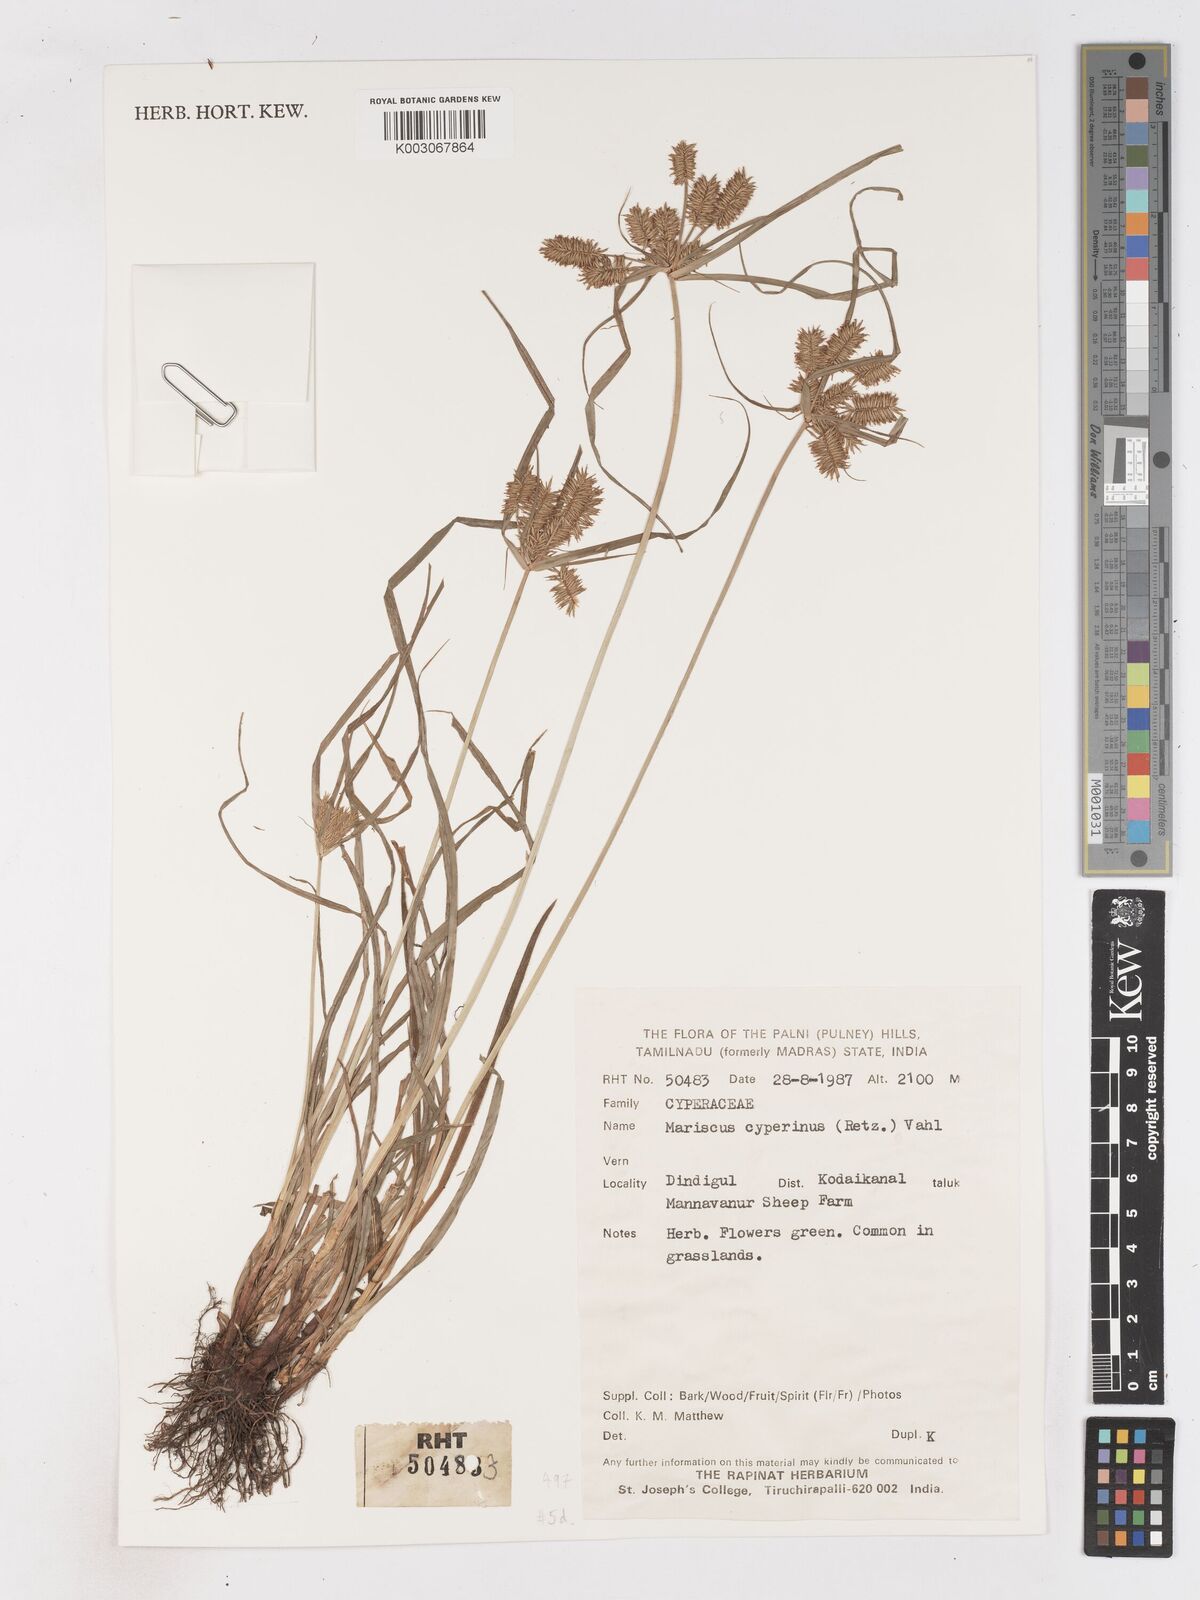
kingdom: Plantae
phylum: Tracheophyta
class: Liliopsida
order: Poales
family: Cyperaceae
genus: Cyperus
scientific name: Cyperus cyperinus
